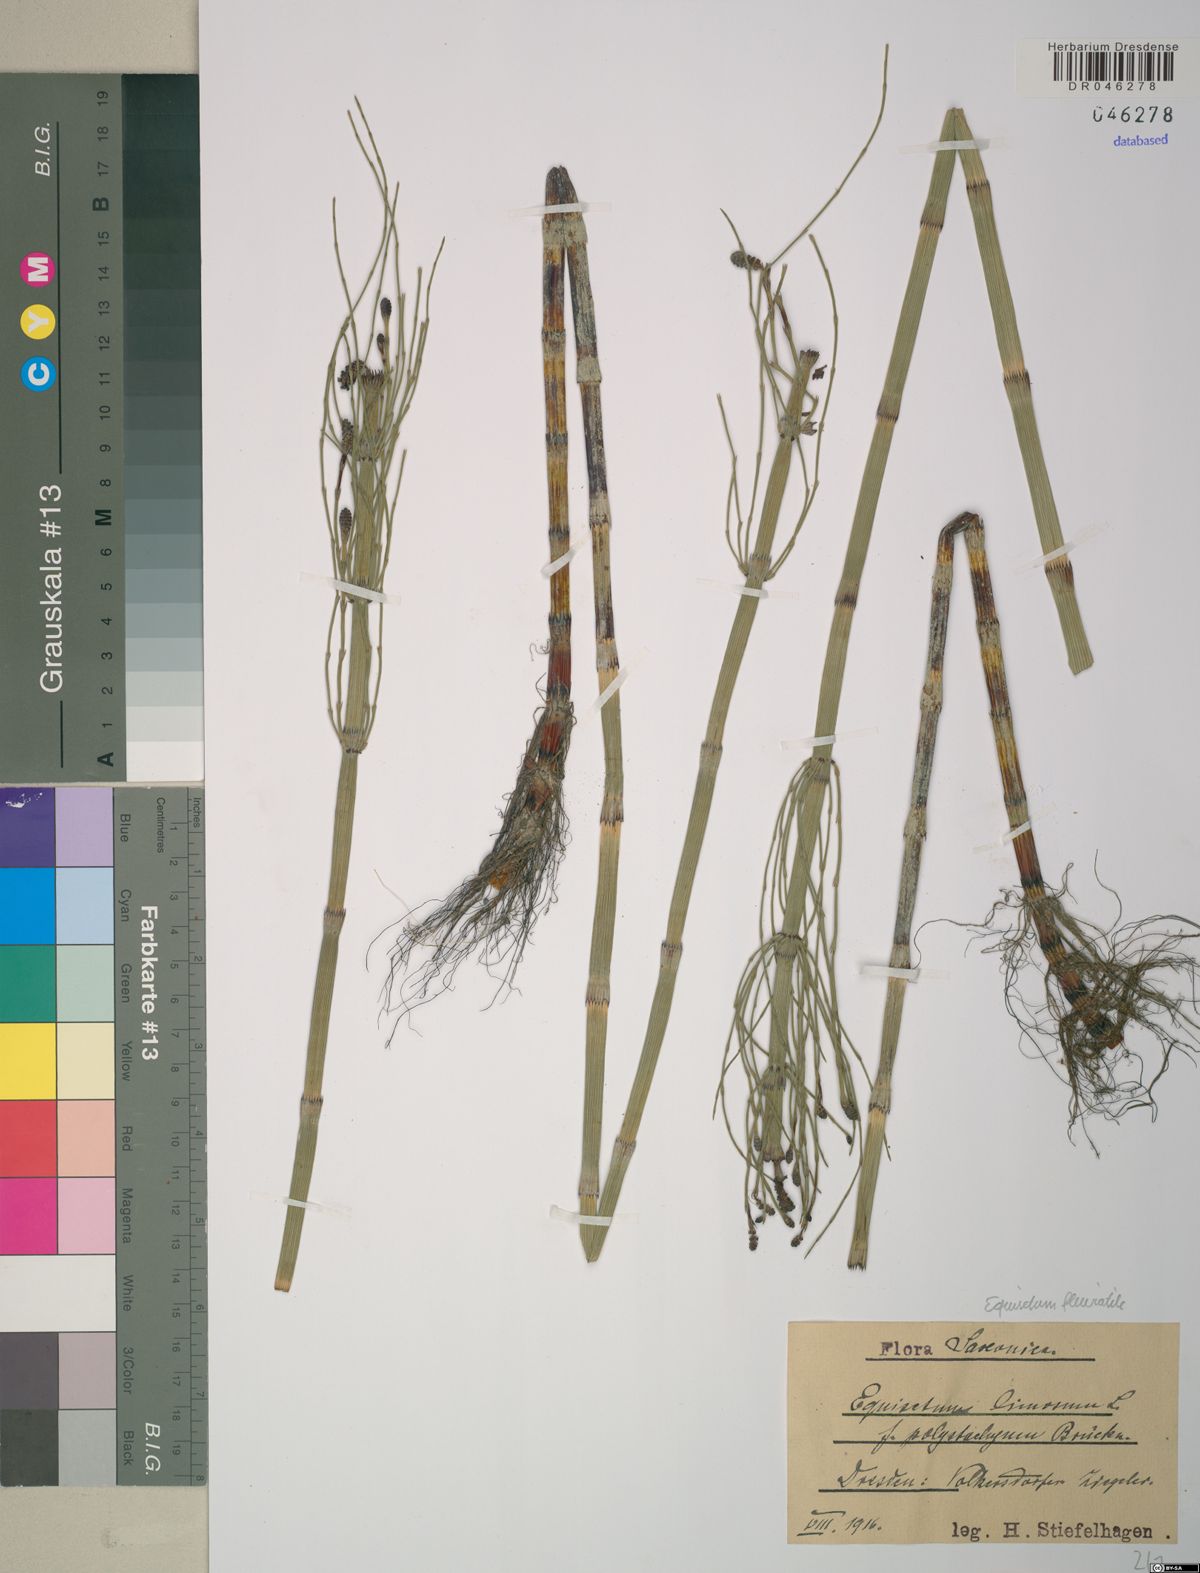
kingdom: Plantae
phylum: Tracheophyta
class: Polypodiopsida
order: Equisetales
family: Equisetaceae
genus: Equisetum
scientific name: Equisetum fluviatile
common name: Water horsetail
